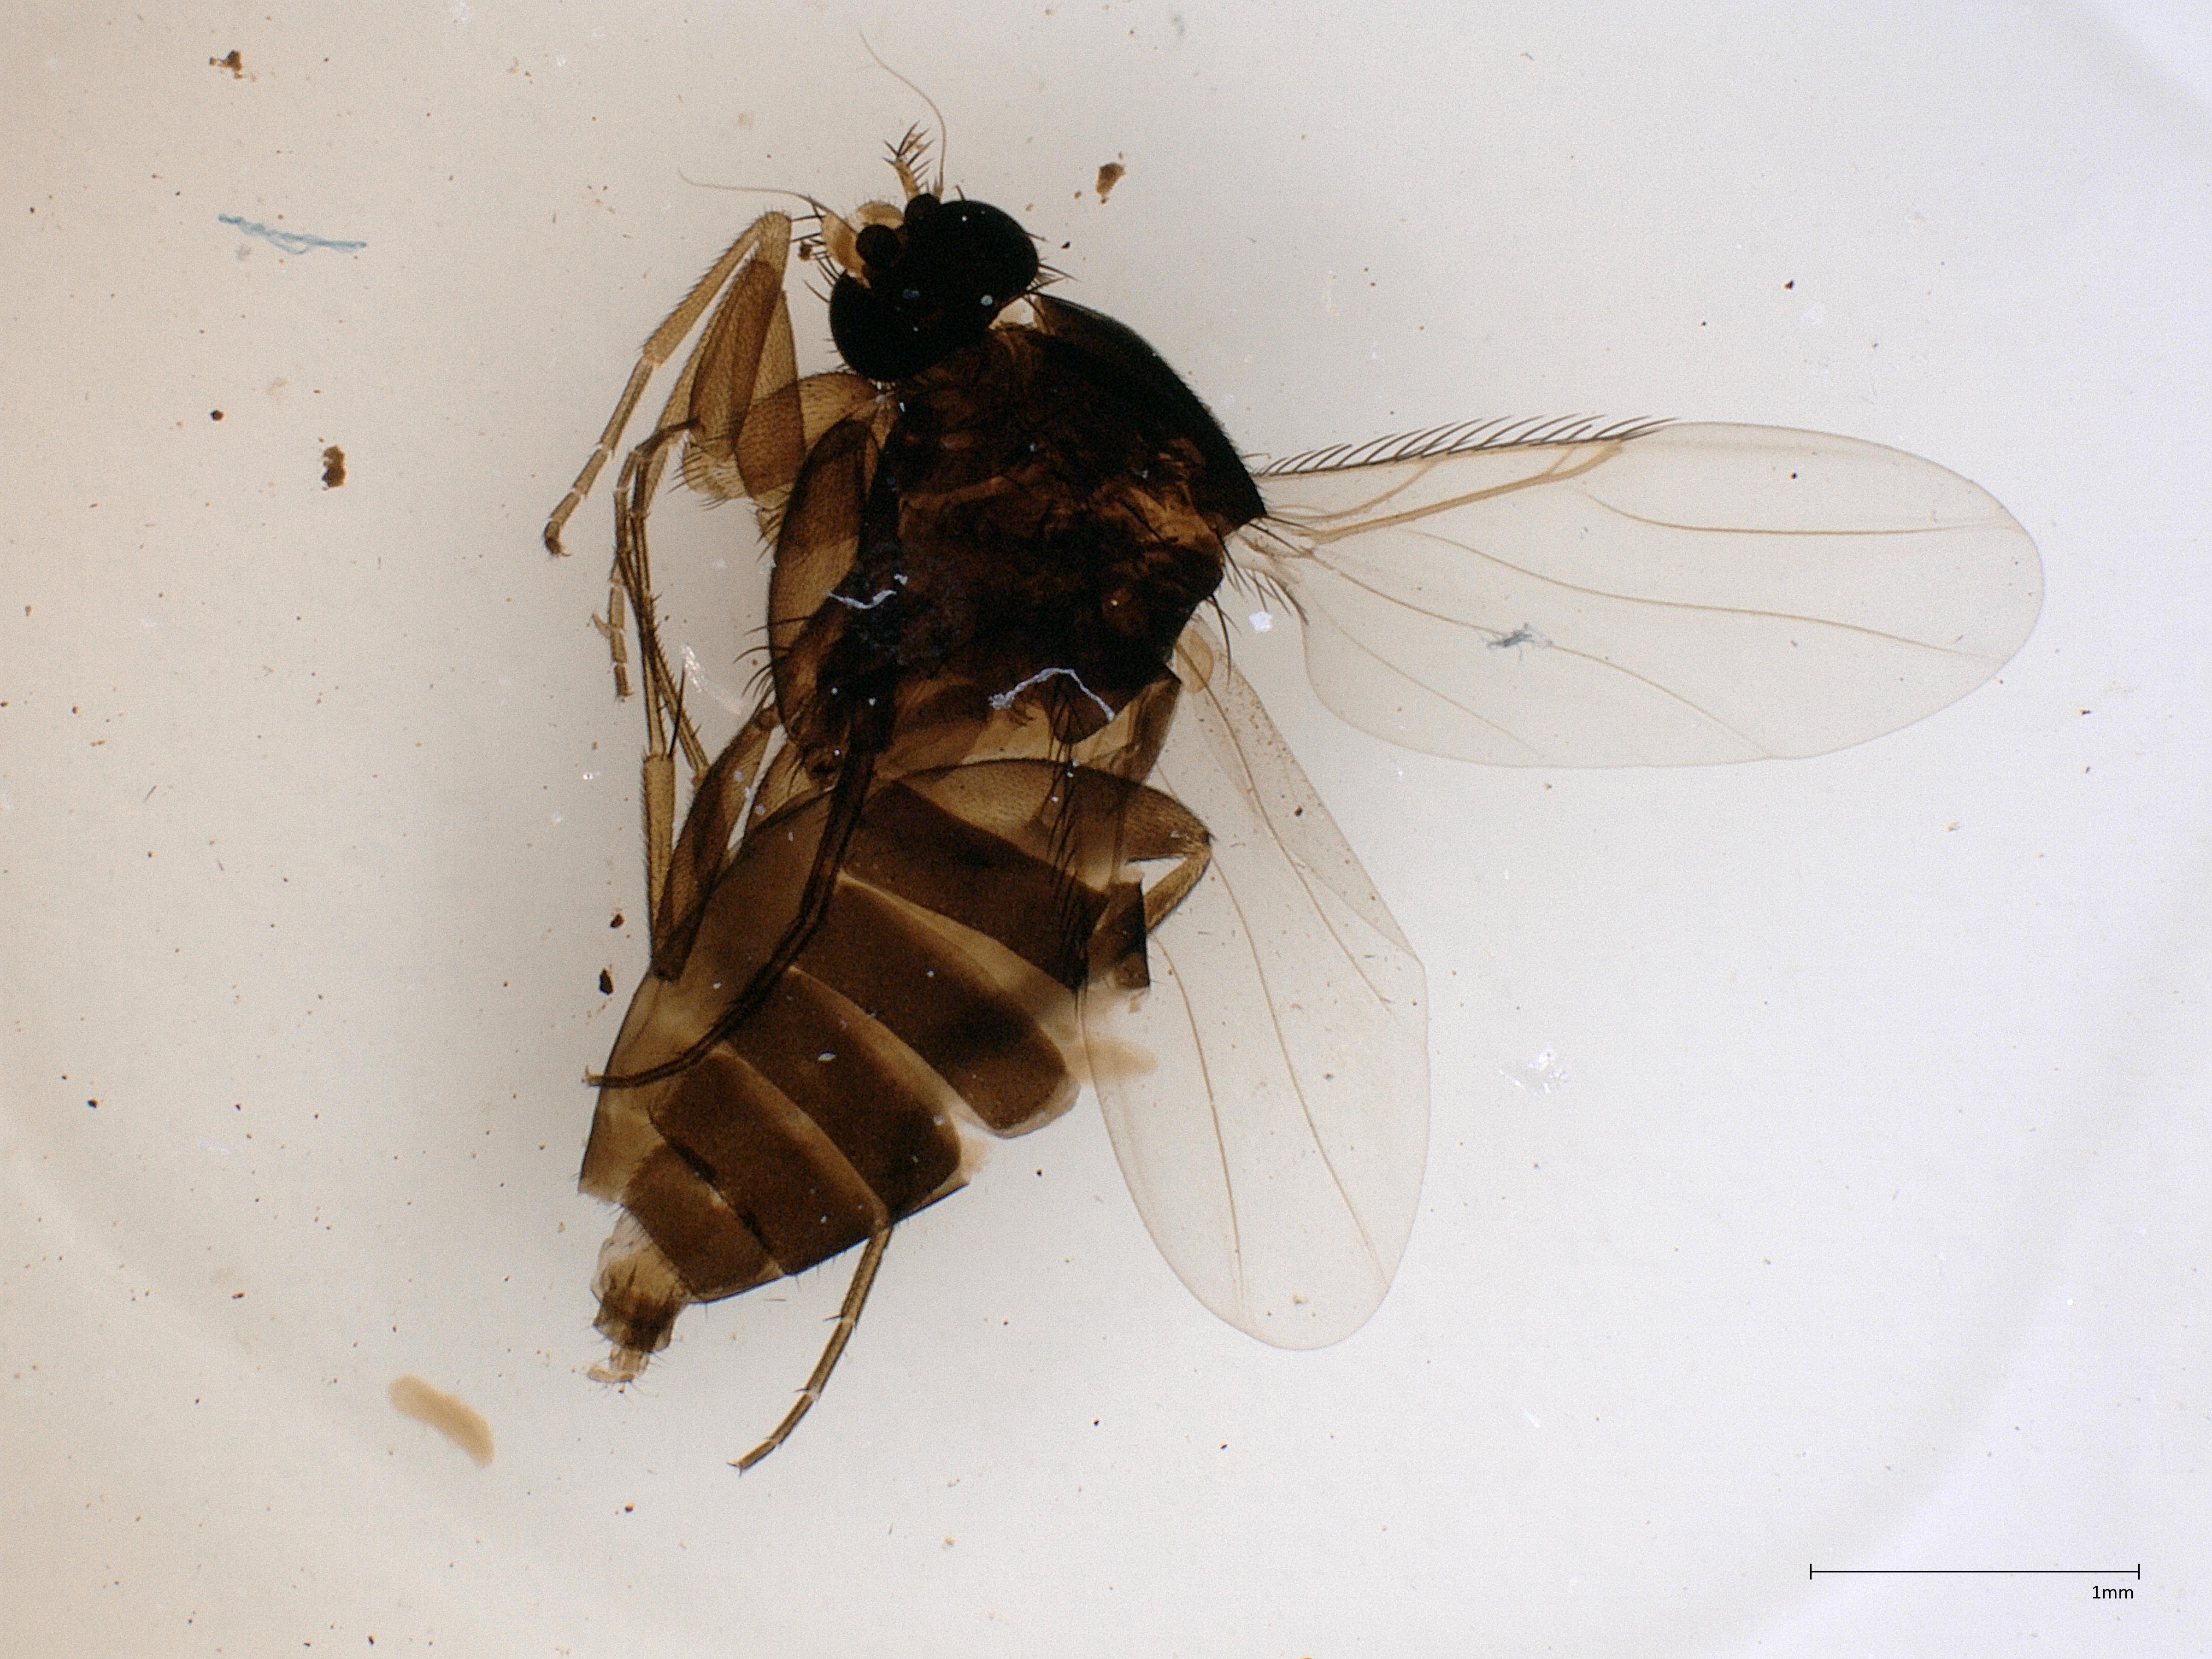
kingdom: Animalia
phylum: Arthropoda
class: Insecta
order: Diptera
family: Phoridae
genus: Megaselia
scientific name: Megaselia
